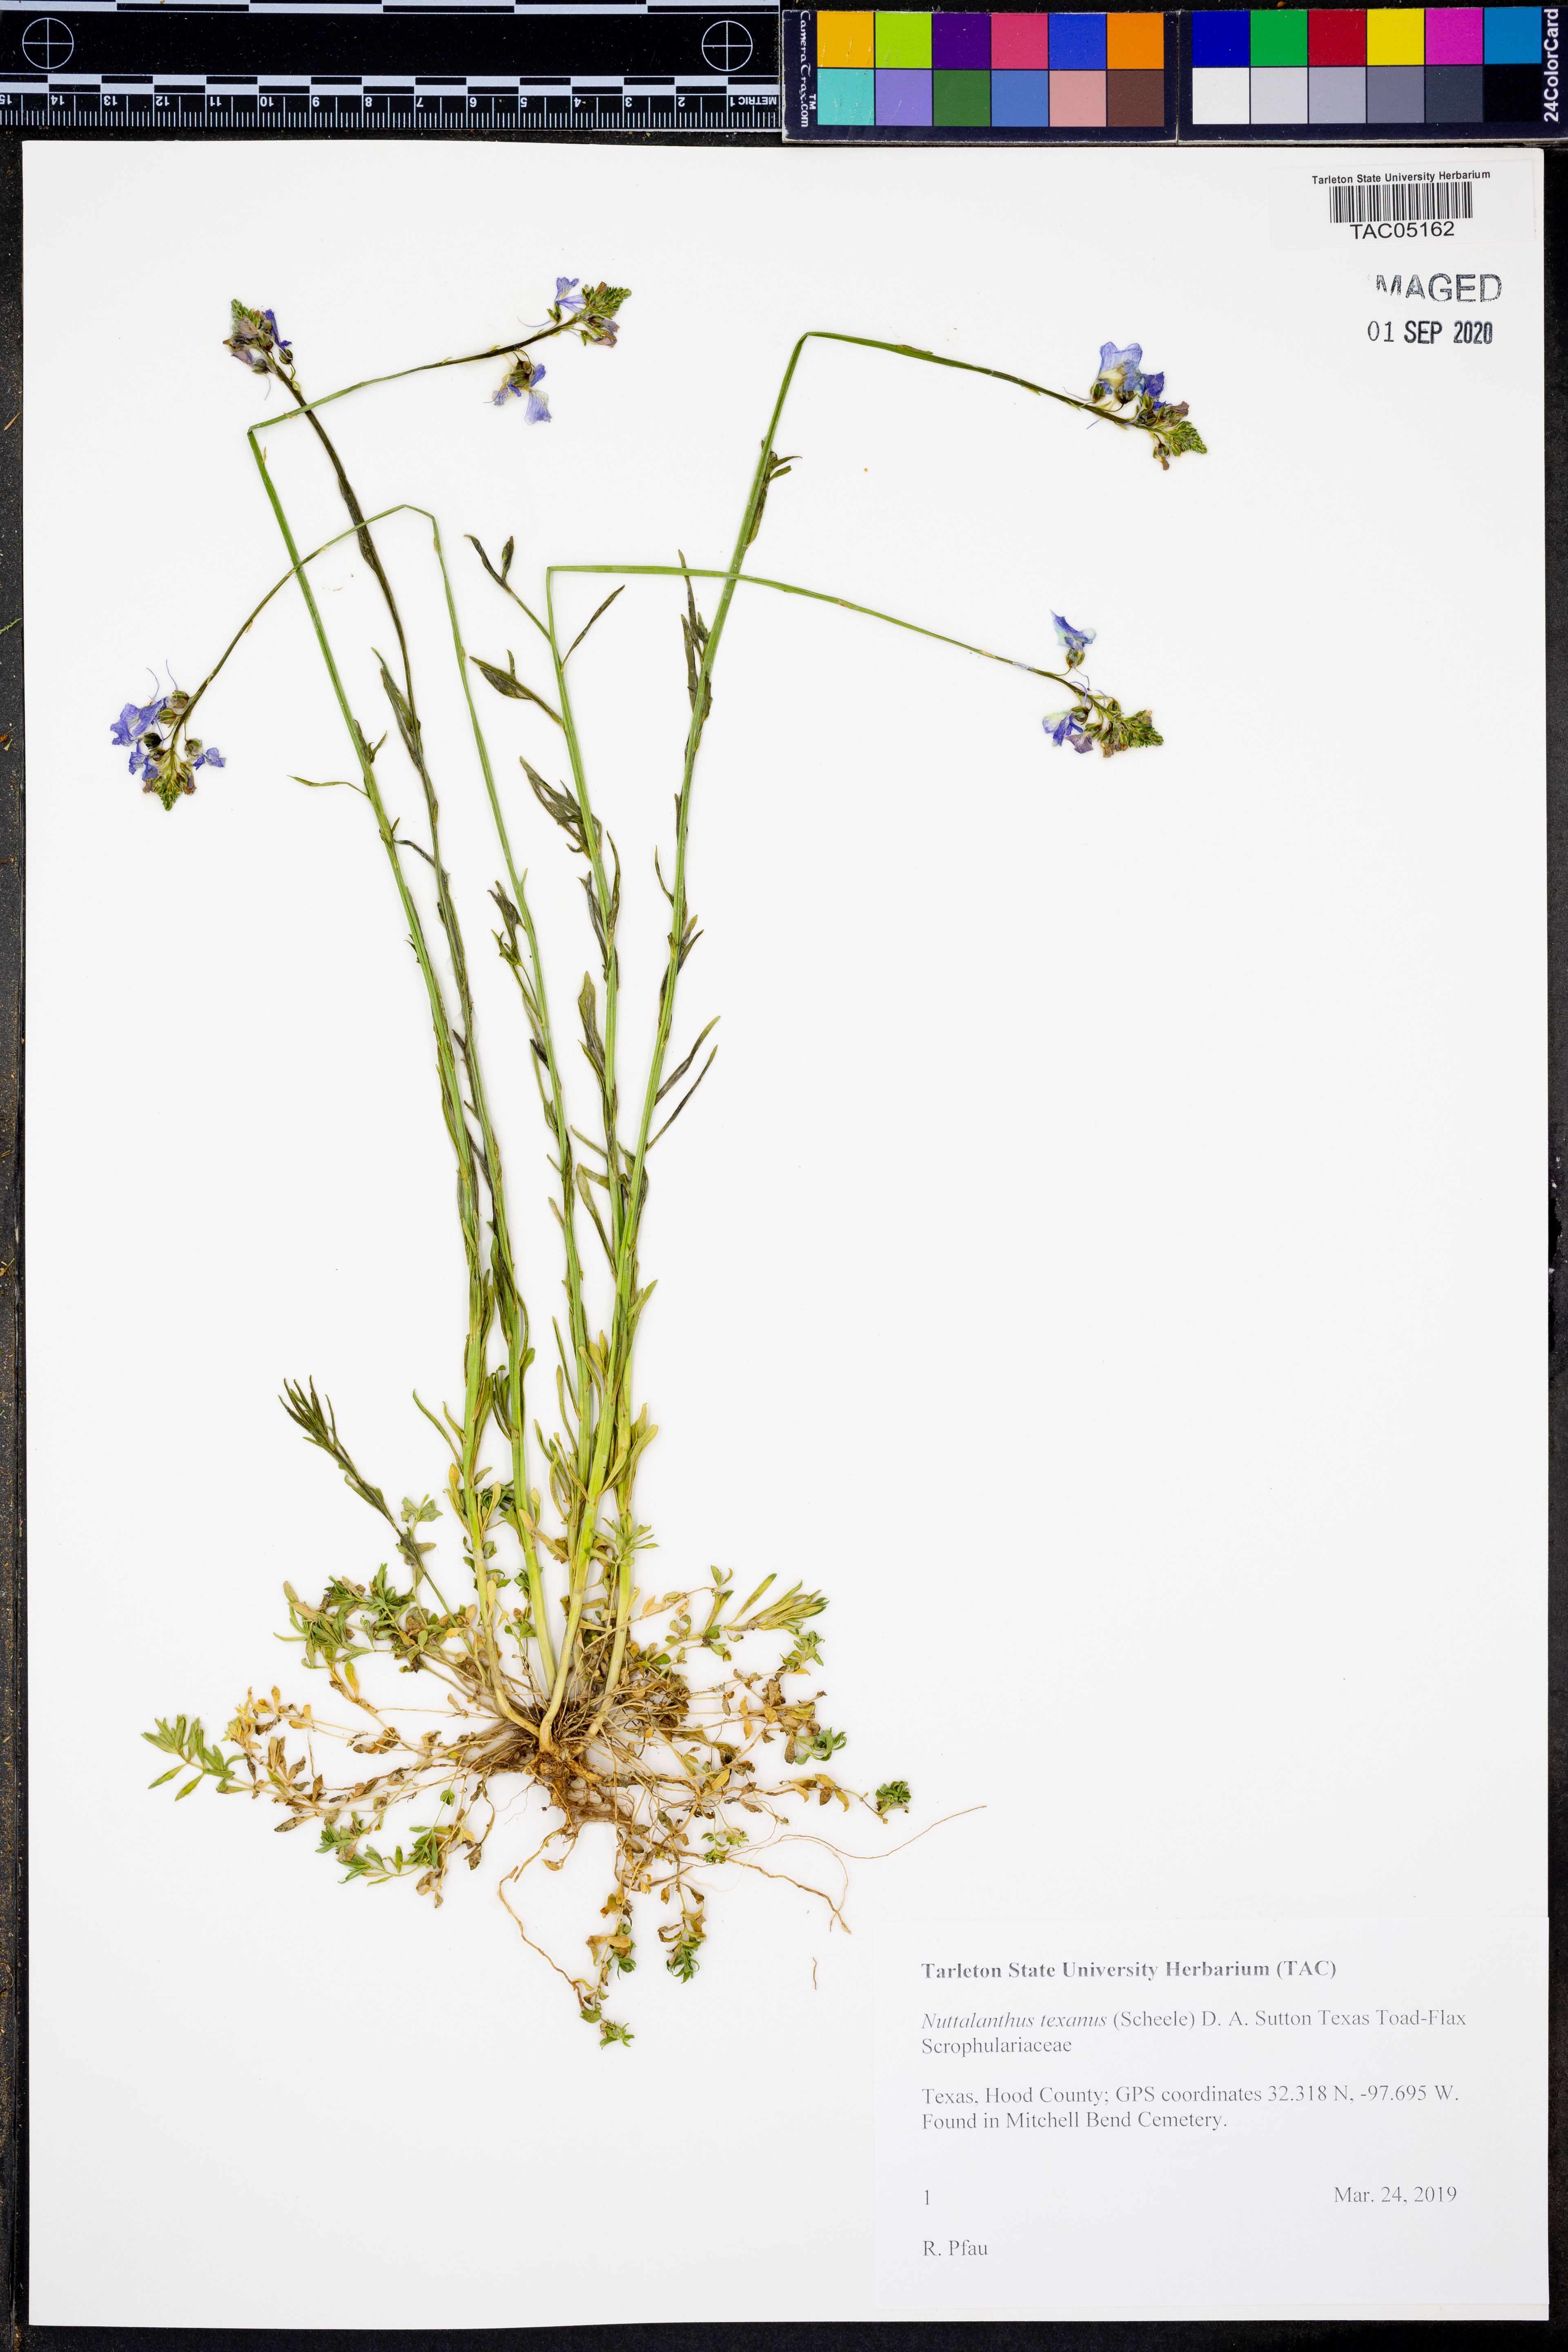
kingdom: Plantae
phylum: Tracheophyta
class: Magnoliopsida
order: Lamiales
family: Plantaginaceae
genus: Nuttallanthus
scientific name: Nuttallanthus texanus
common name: Texas toadflax
